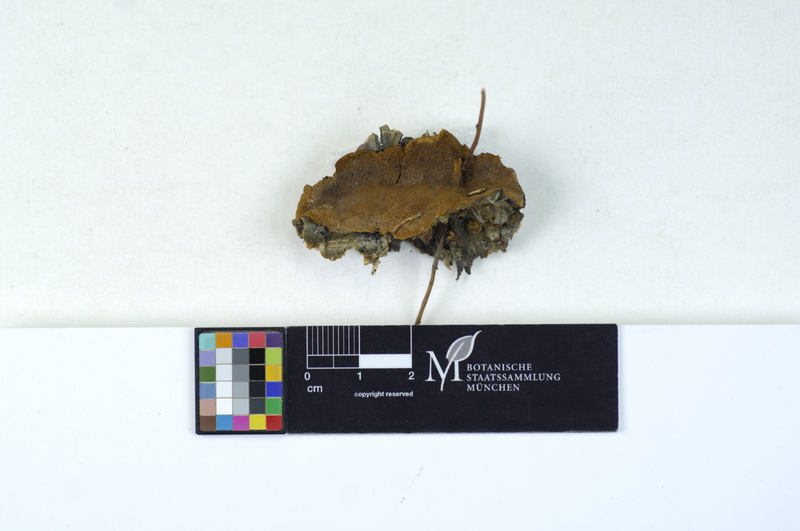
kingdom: Plantae
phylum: Tracheophyta
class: Magnoliopsida
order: Fagales
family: Betulaceae
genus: Betula
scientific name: Betula
